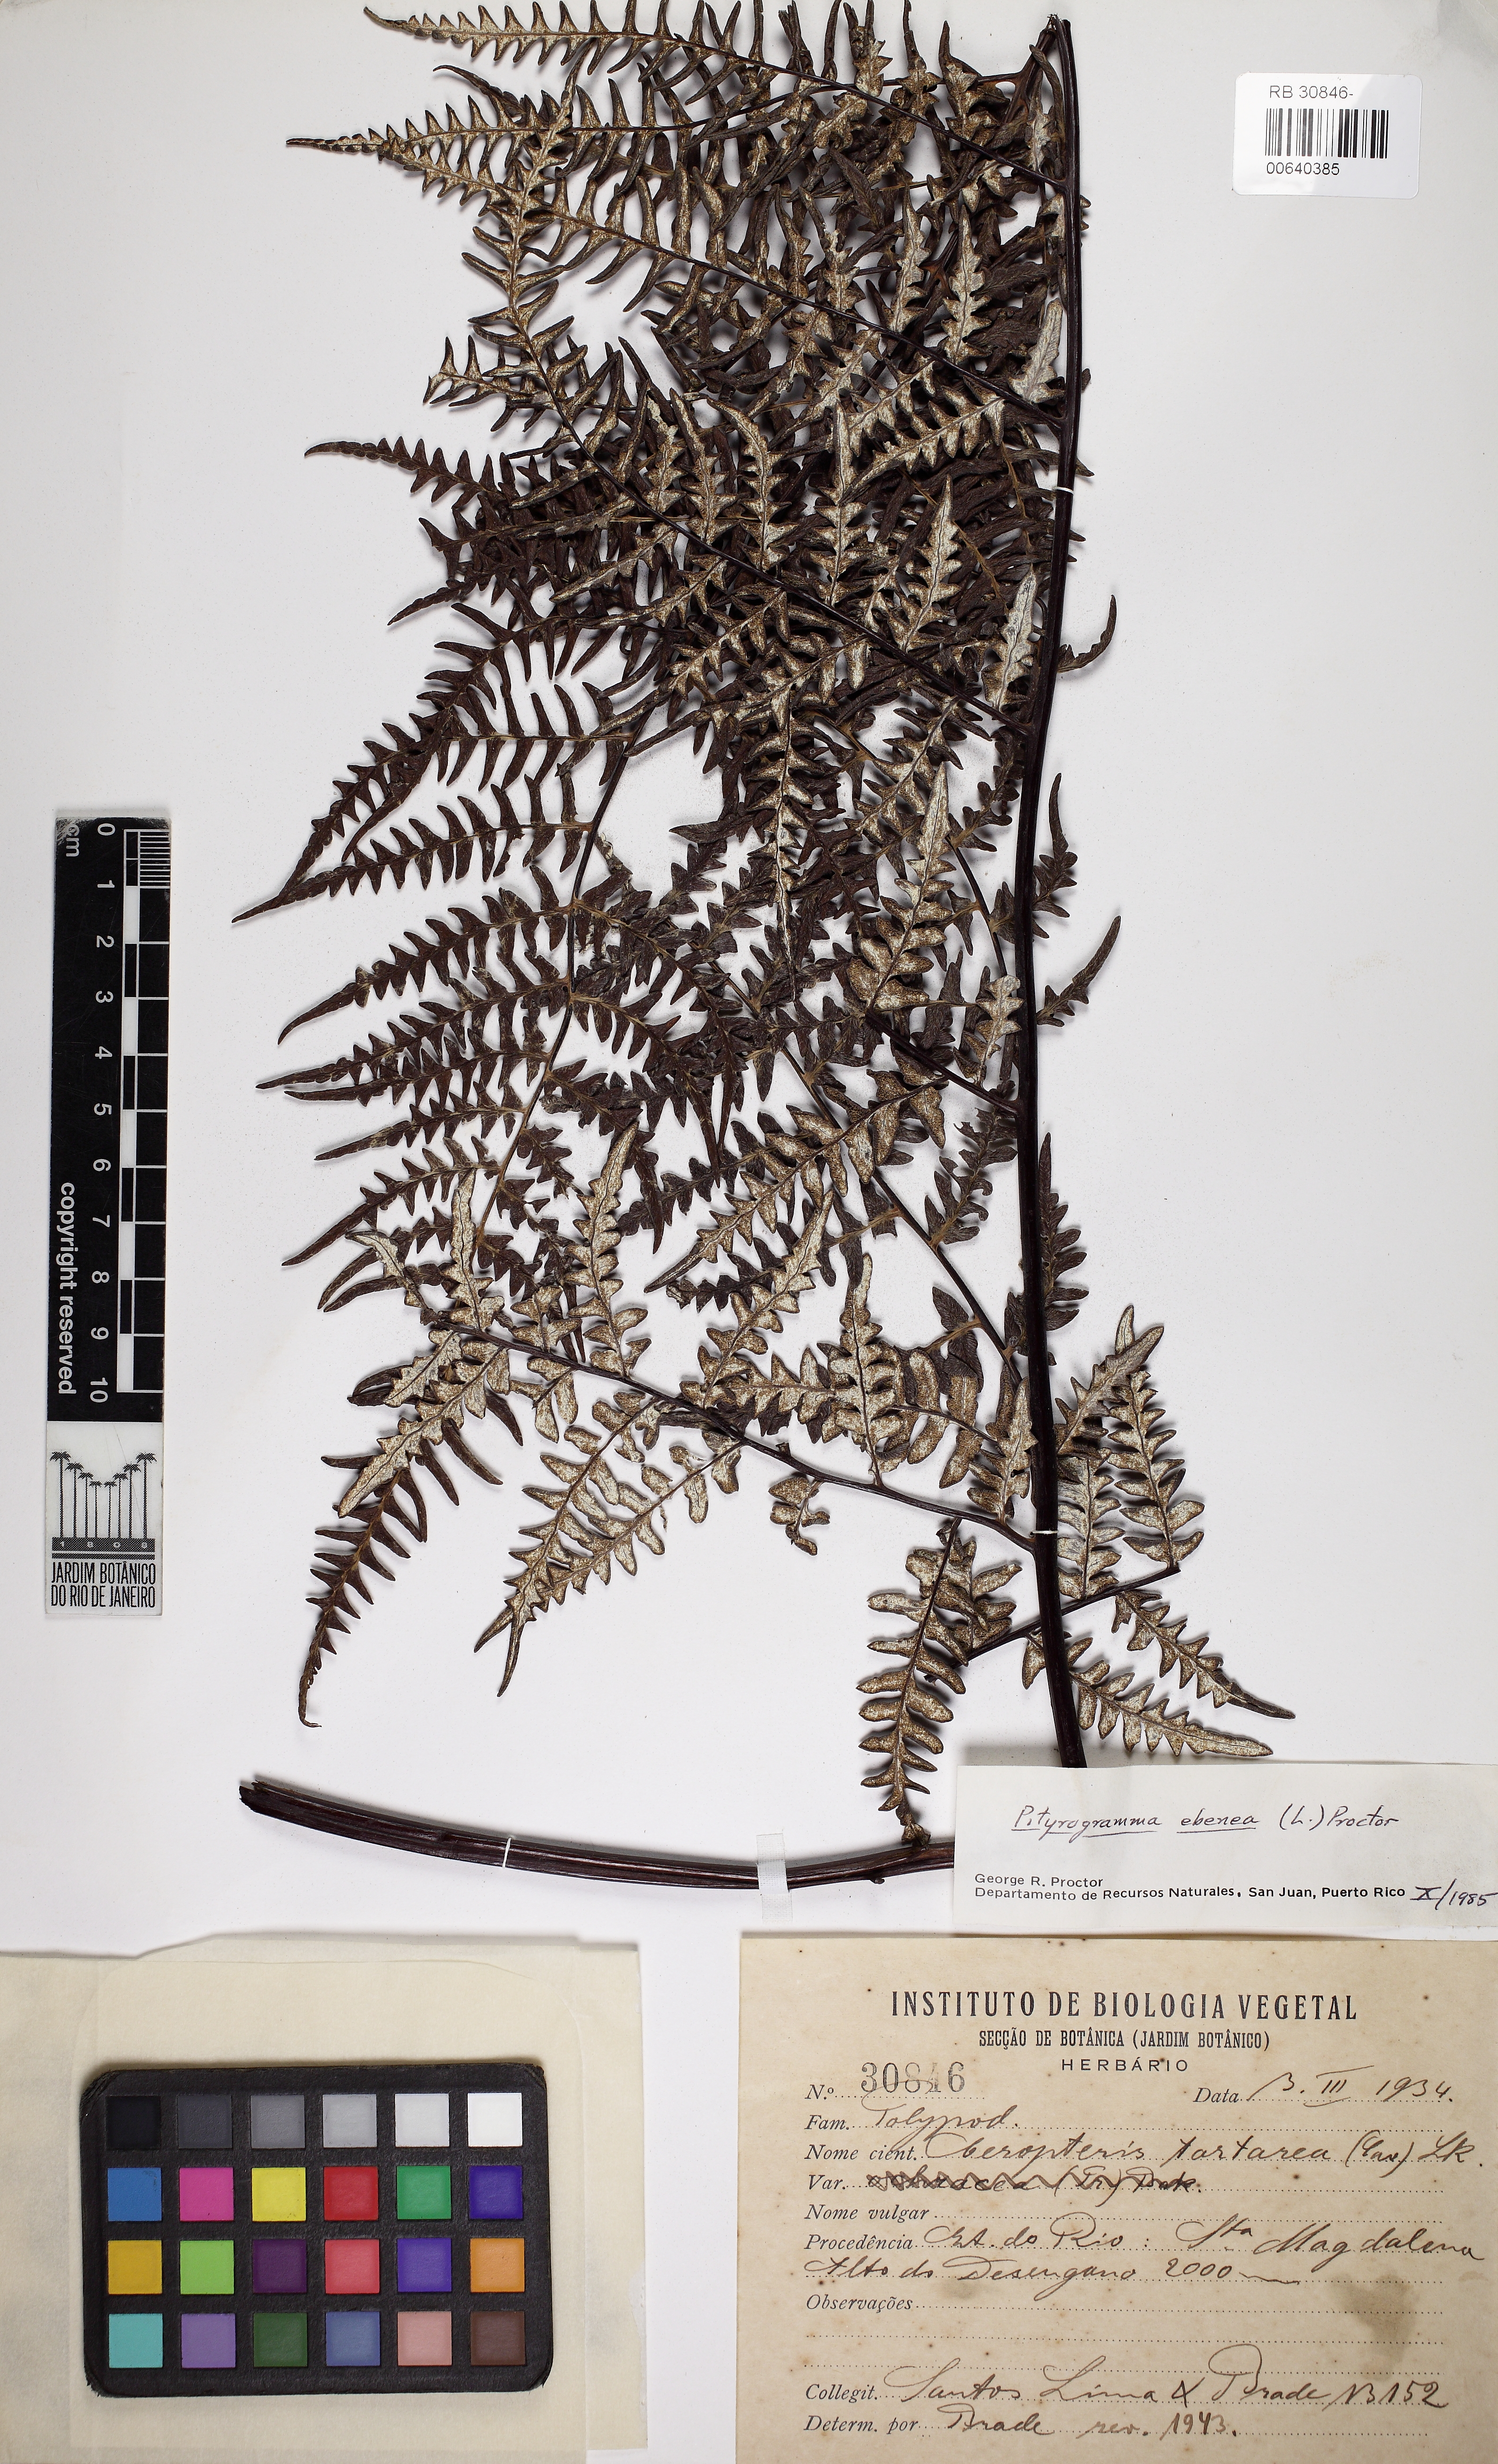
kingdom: Plantae
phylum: Tracheophyta
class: Polypodiopsida
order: Polypodiales
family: Pteridaceae
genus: Pityrogramma
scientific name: Pityrogramma ebenea
